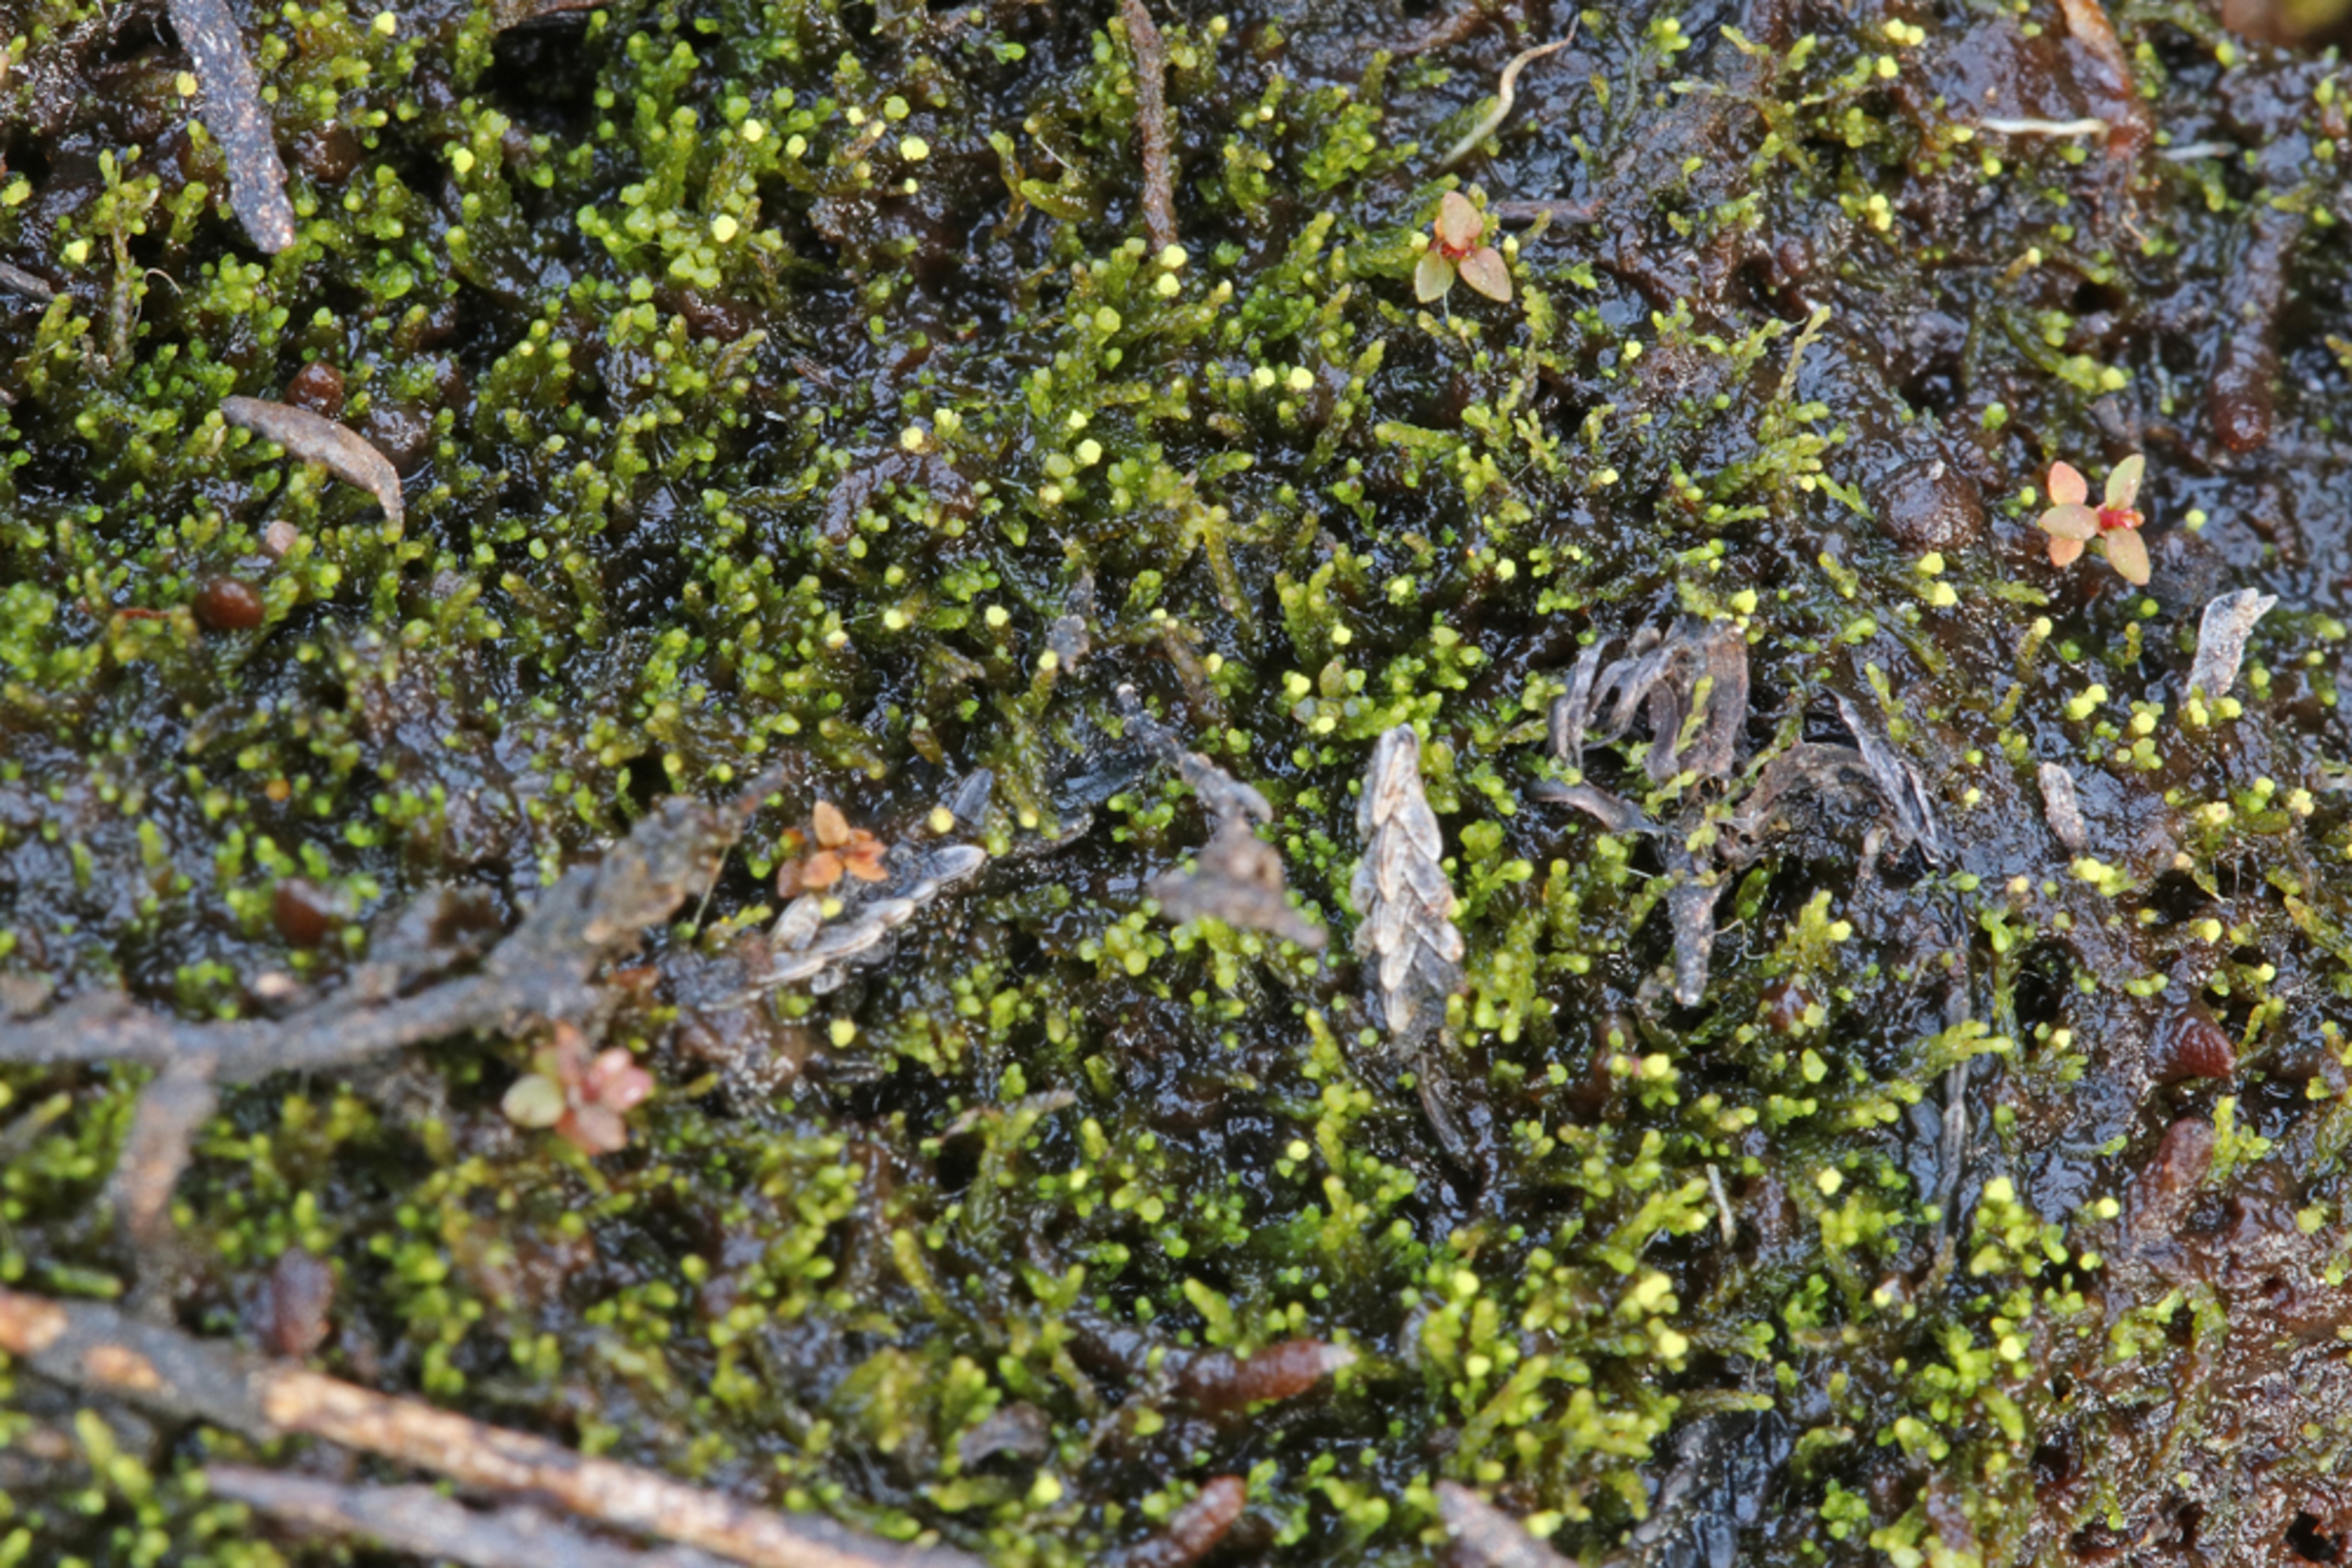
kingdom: Plantae
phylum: Marchantiophyta
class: Jungermanniopsida
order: Jungermanniales
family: Cephaloziaceae
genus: Odontoschisma
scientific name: Odontoschisma francisci
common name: Sand-vævmos
